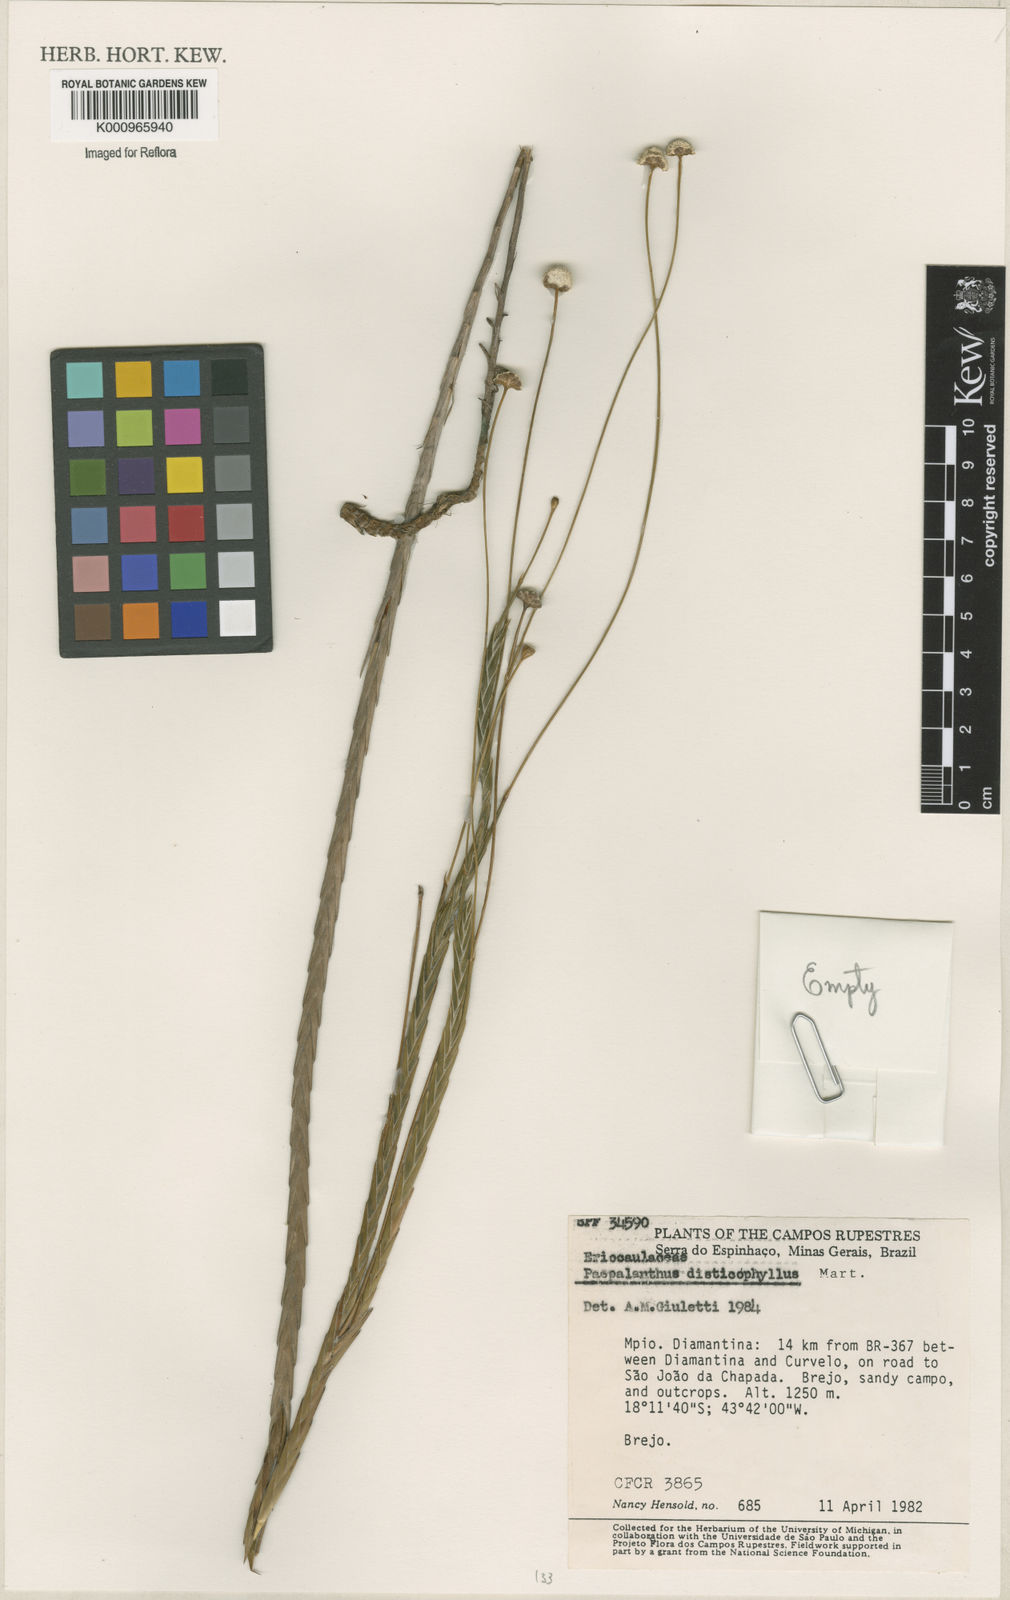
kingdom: Plantae
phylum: Tracheophyta
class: Liliopsida
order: Poales
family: Eriocaulaceae
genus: Paepalanthus
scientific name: Paepalanthus distichophyllus
